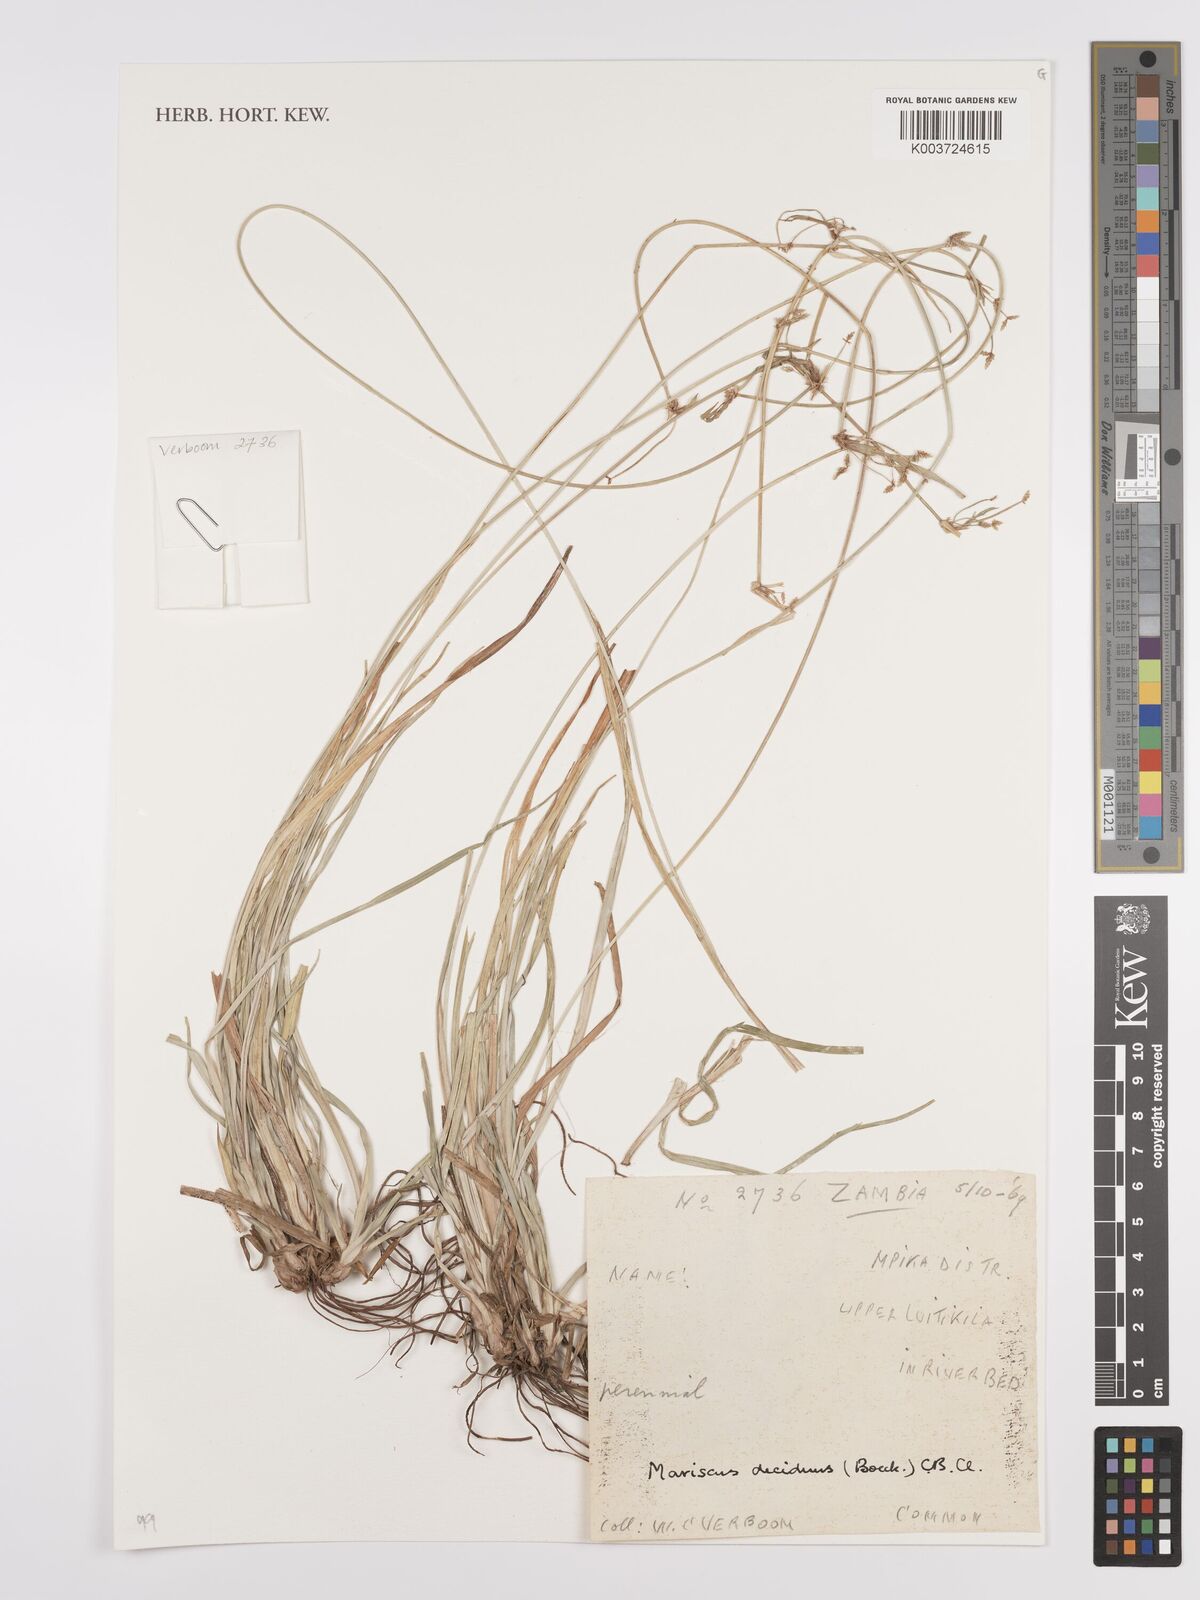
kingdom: Plantae
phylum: Tracheophyta
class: Liliopsida
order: Poales
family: Cyperaceae
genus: Cyperus
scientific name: Cyperus deciduus
